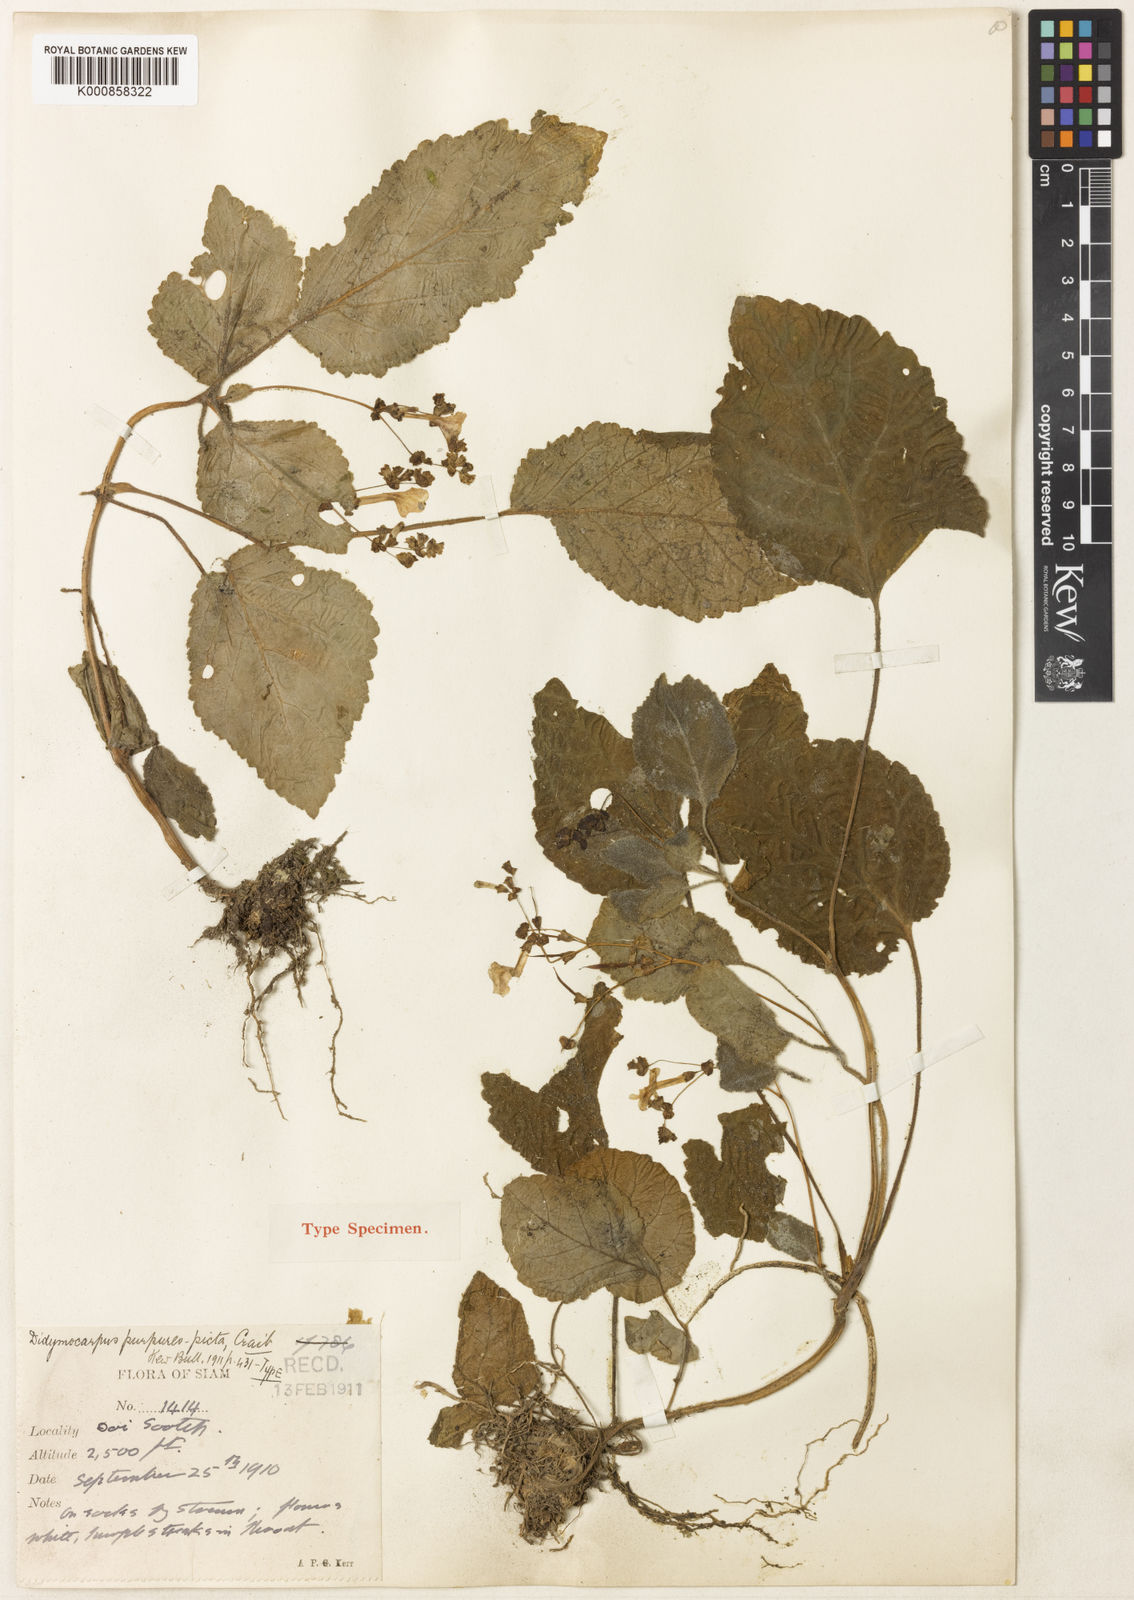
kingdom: Plantae
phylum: Tracheophyta
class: Magnoliopsida
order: Lamiales
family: Gesneriaceae
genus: Didymocarpus
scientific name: Didymocarpus purpureopictus
